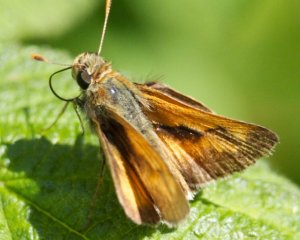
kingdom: Animalia
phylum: Arthropoda
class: Insecta
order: Lepidoptera
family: Hesperiidae
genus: Polites
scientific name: Polites
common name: Long Dash Skipper
